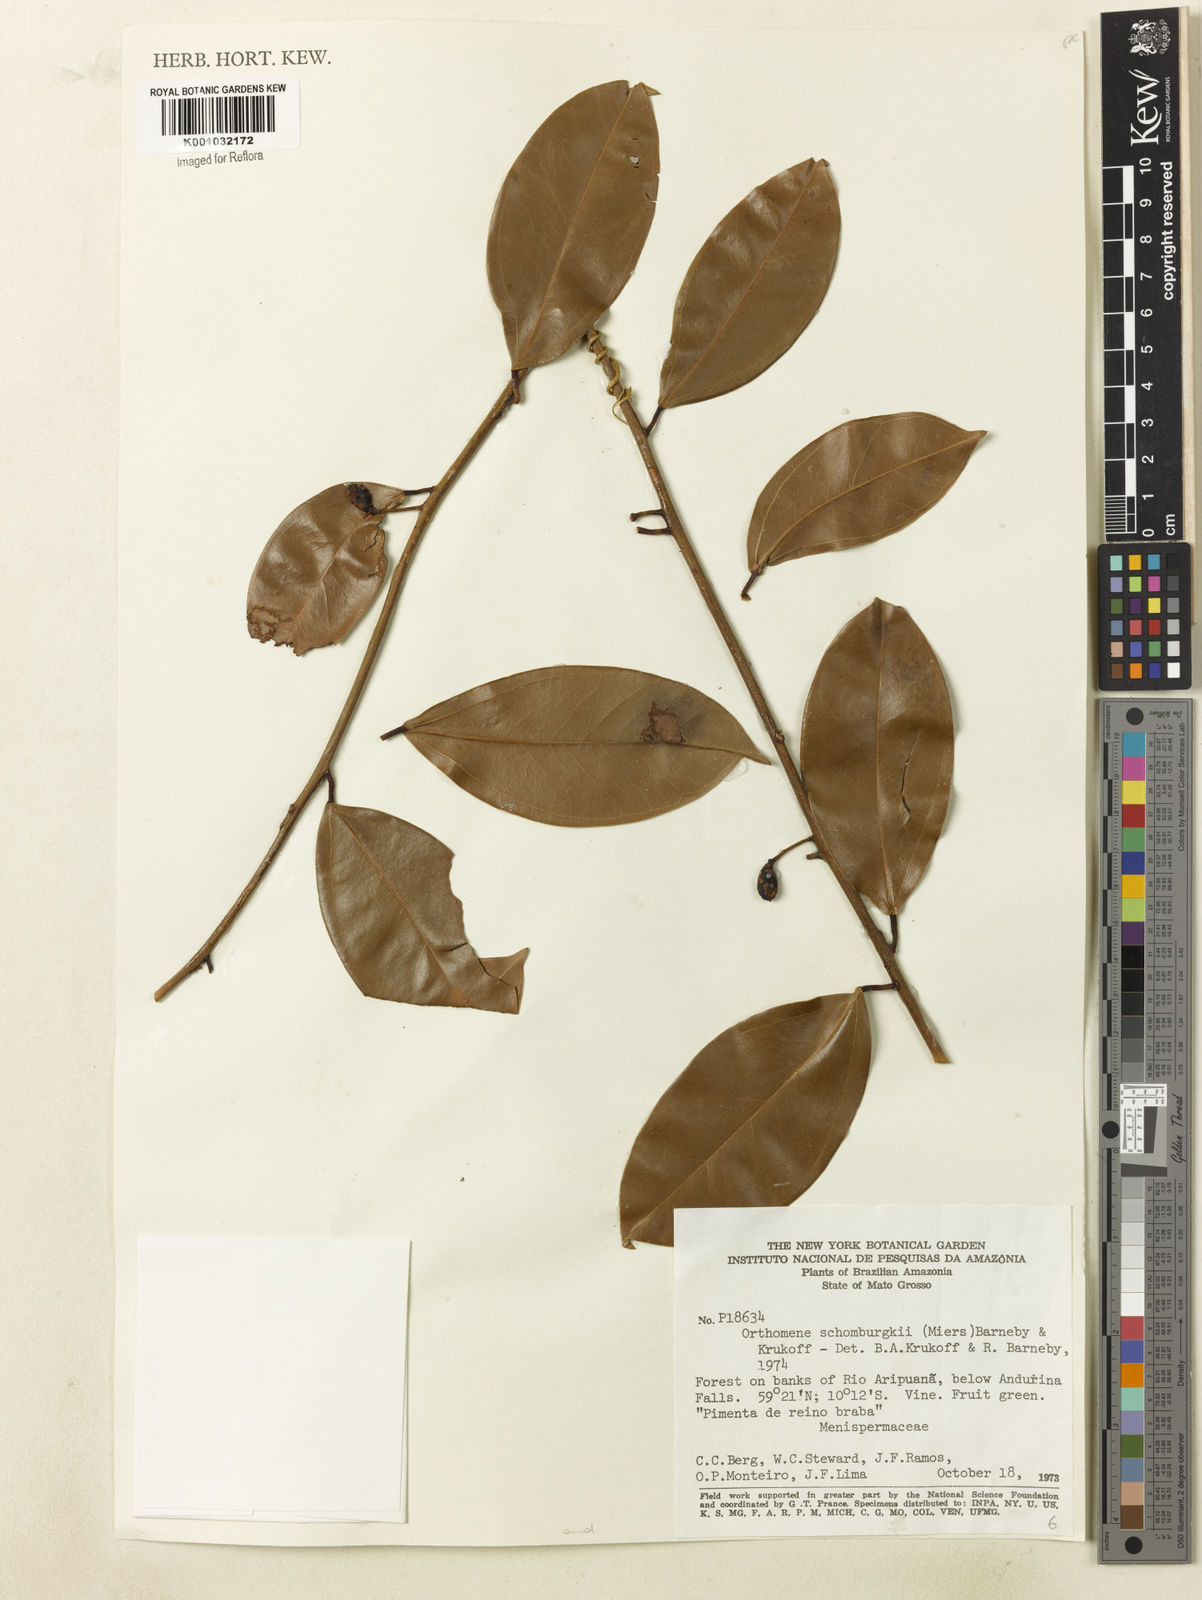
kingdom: Plantae
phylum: Tracheophyta
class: Magnoliopsida
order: Ranunculales
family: Menispermaceae
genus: Orthomene
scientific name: Orthomene schomburgkii
